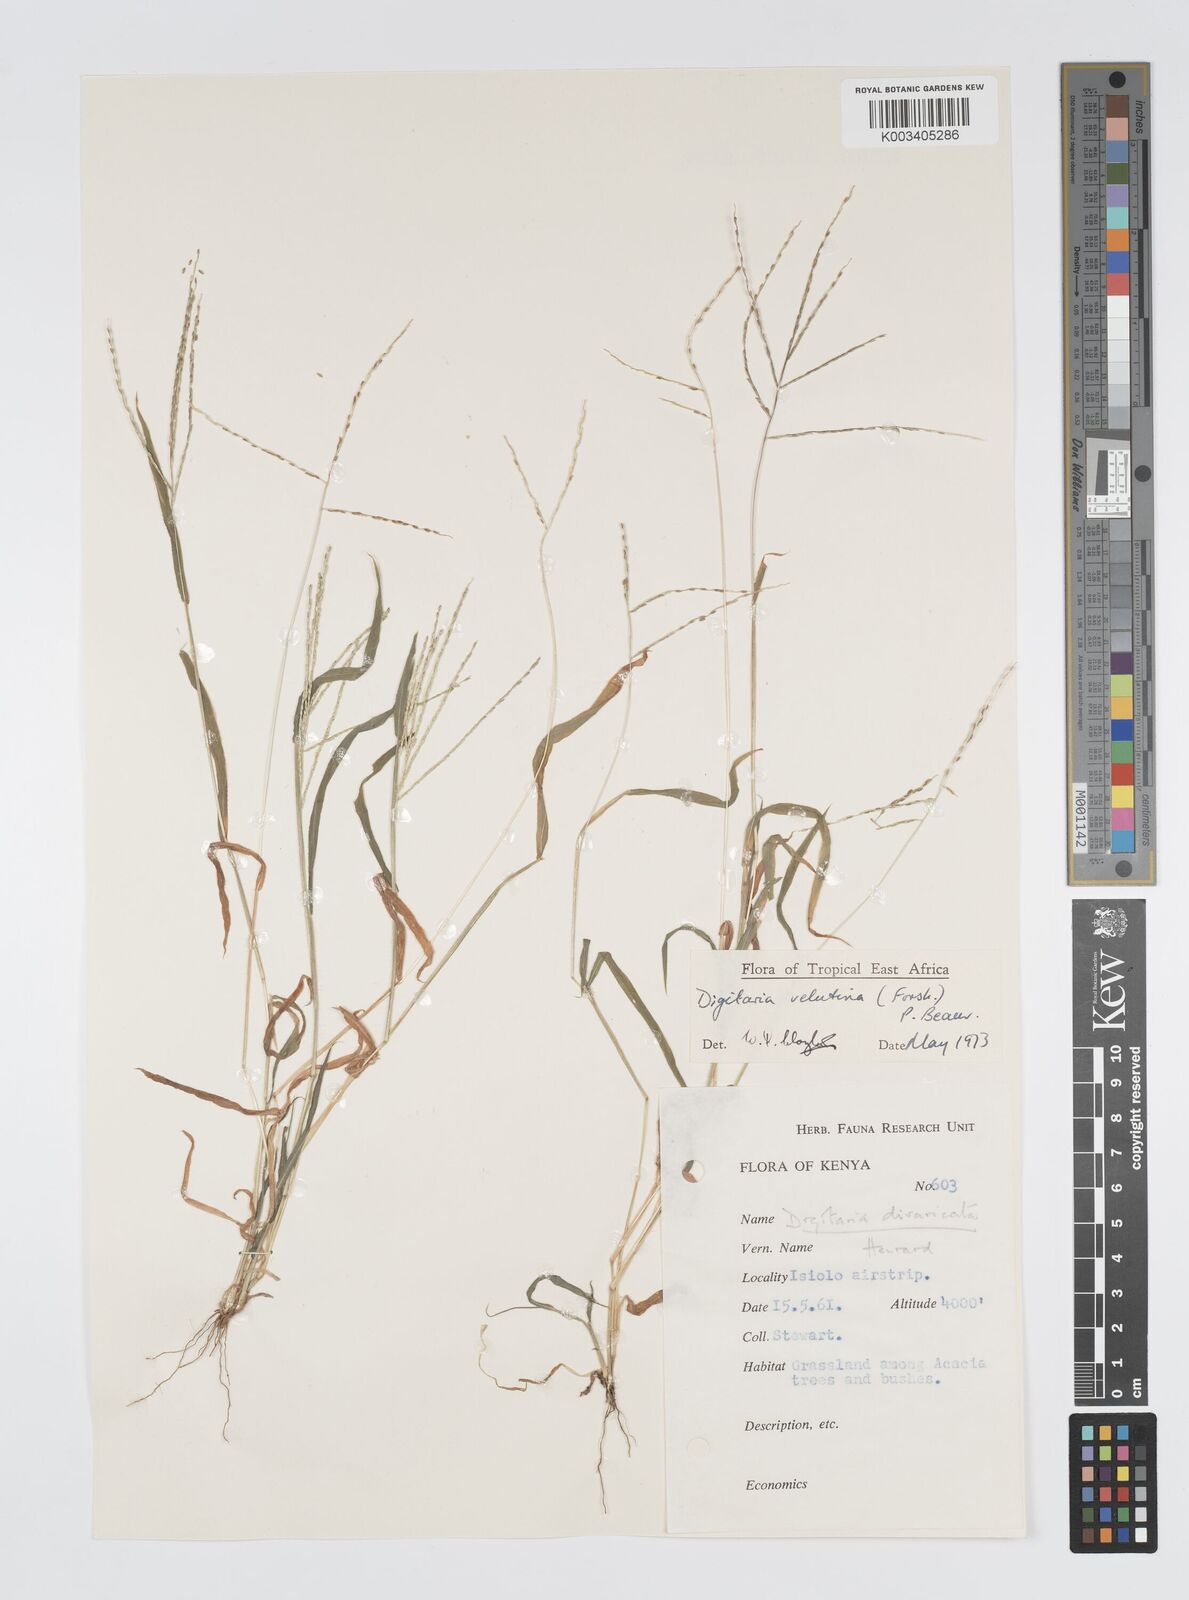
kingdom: Plantae
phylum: Tracheophyta
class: Liliopsida
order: Poales
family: Poaceae
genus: Digitaria
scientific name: Digitaria velutina
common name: Long-plume finger grass
